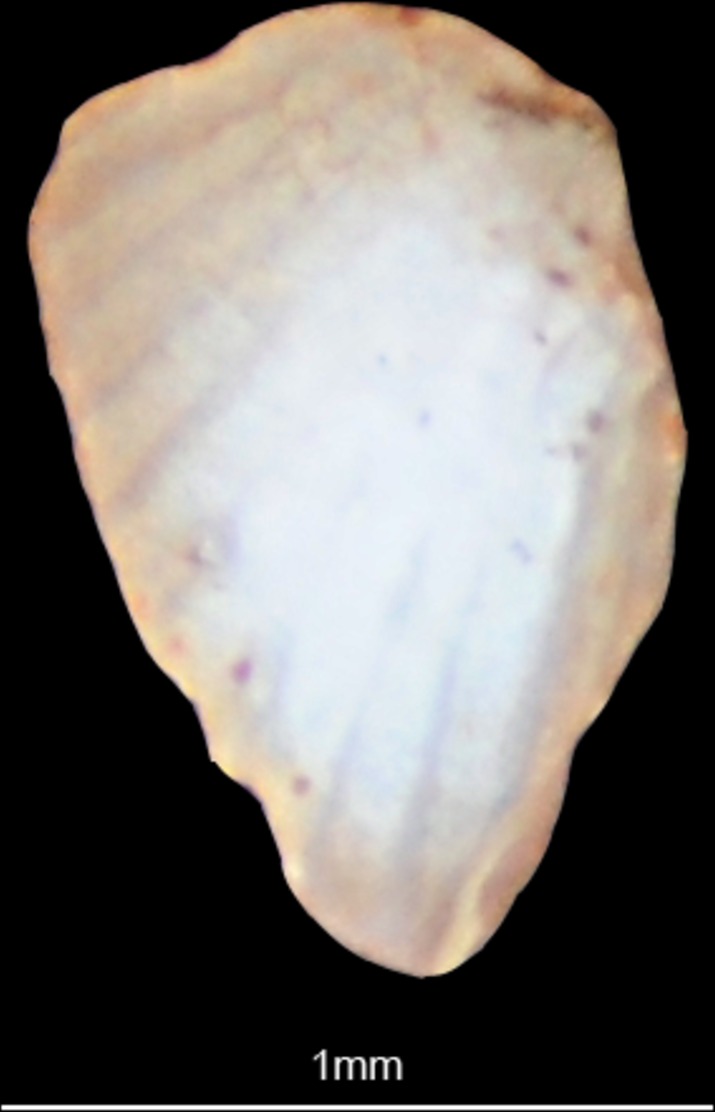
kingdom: Animalia
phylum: Chordata
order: Perciformes
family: Labridae
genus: Symphodus
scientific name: Symphodus tinca
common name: Peacock wrasse
